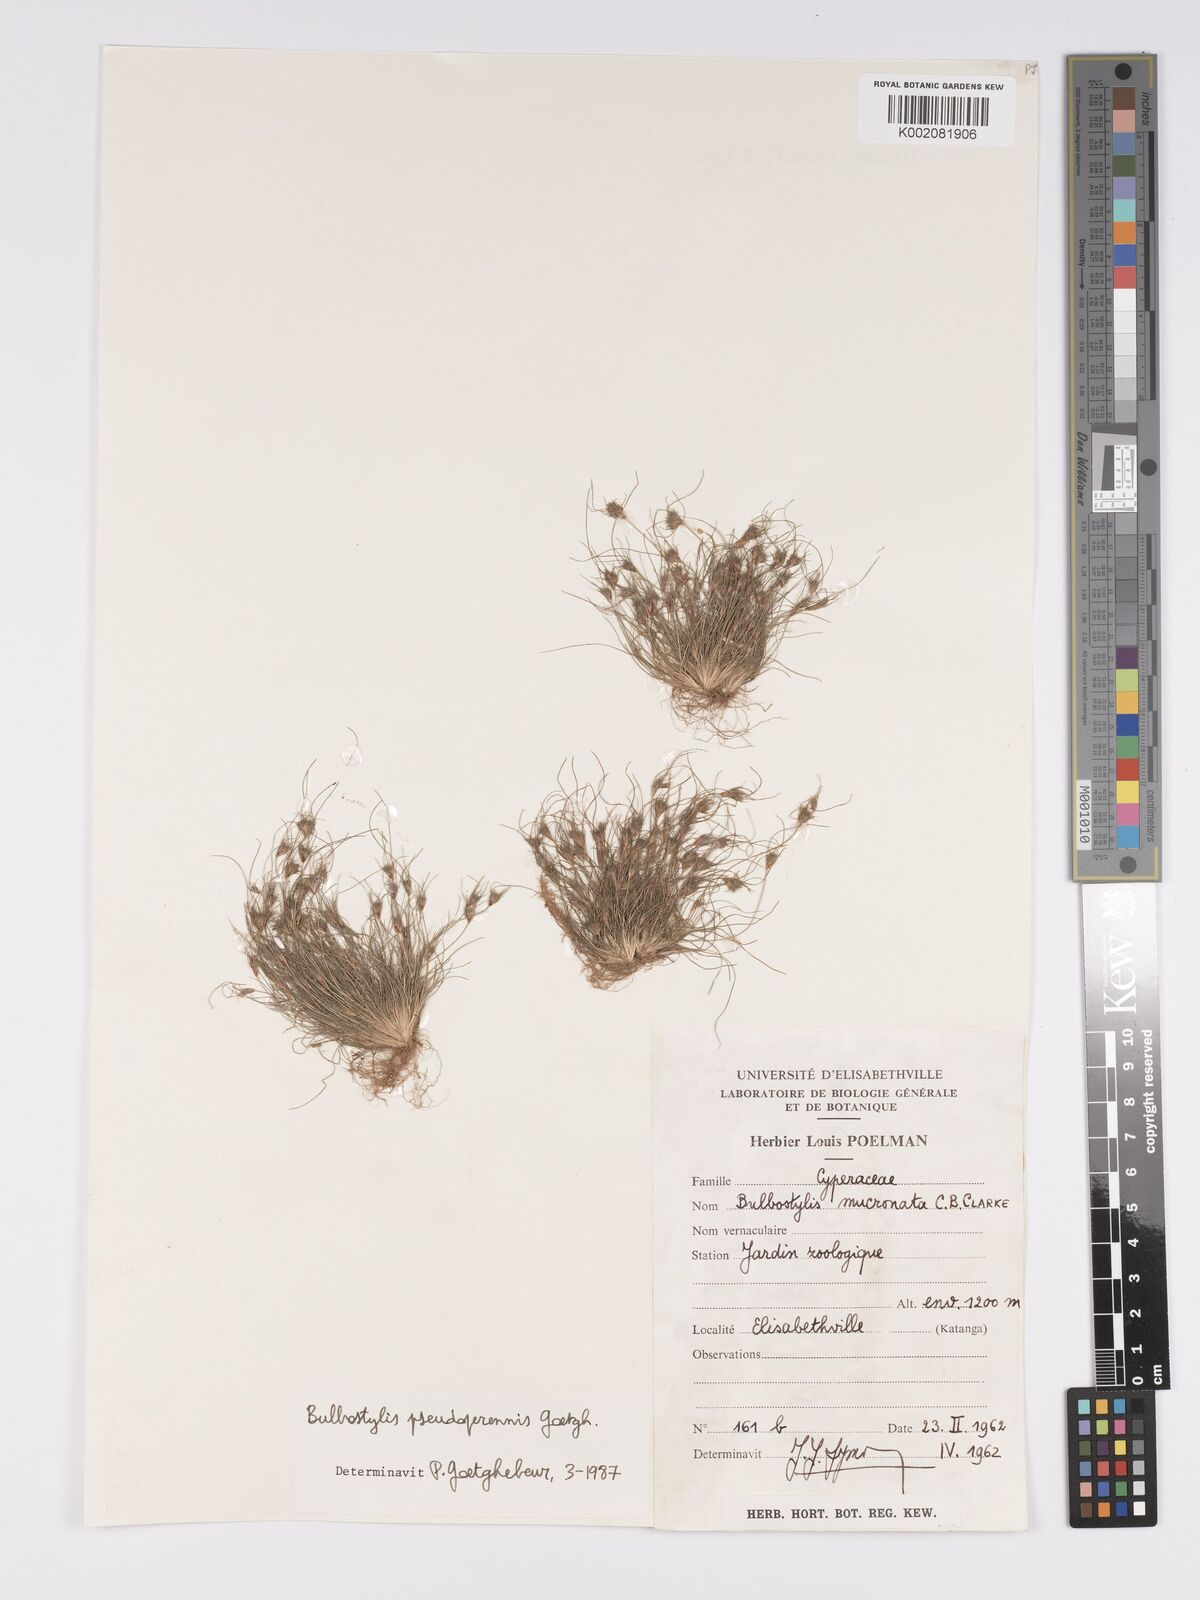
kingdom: Plantae
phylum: Tracheophyta
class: Liliopsida
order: Poales
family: Cyperaceae
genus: Bulbostylis
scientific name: Bulbostylis abbreviata
